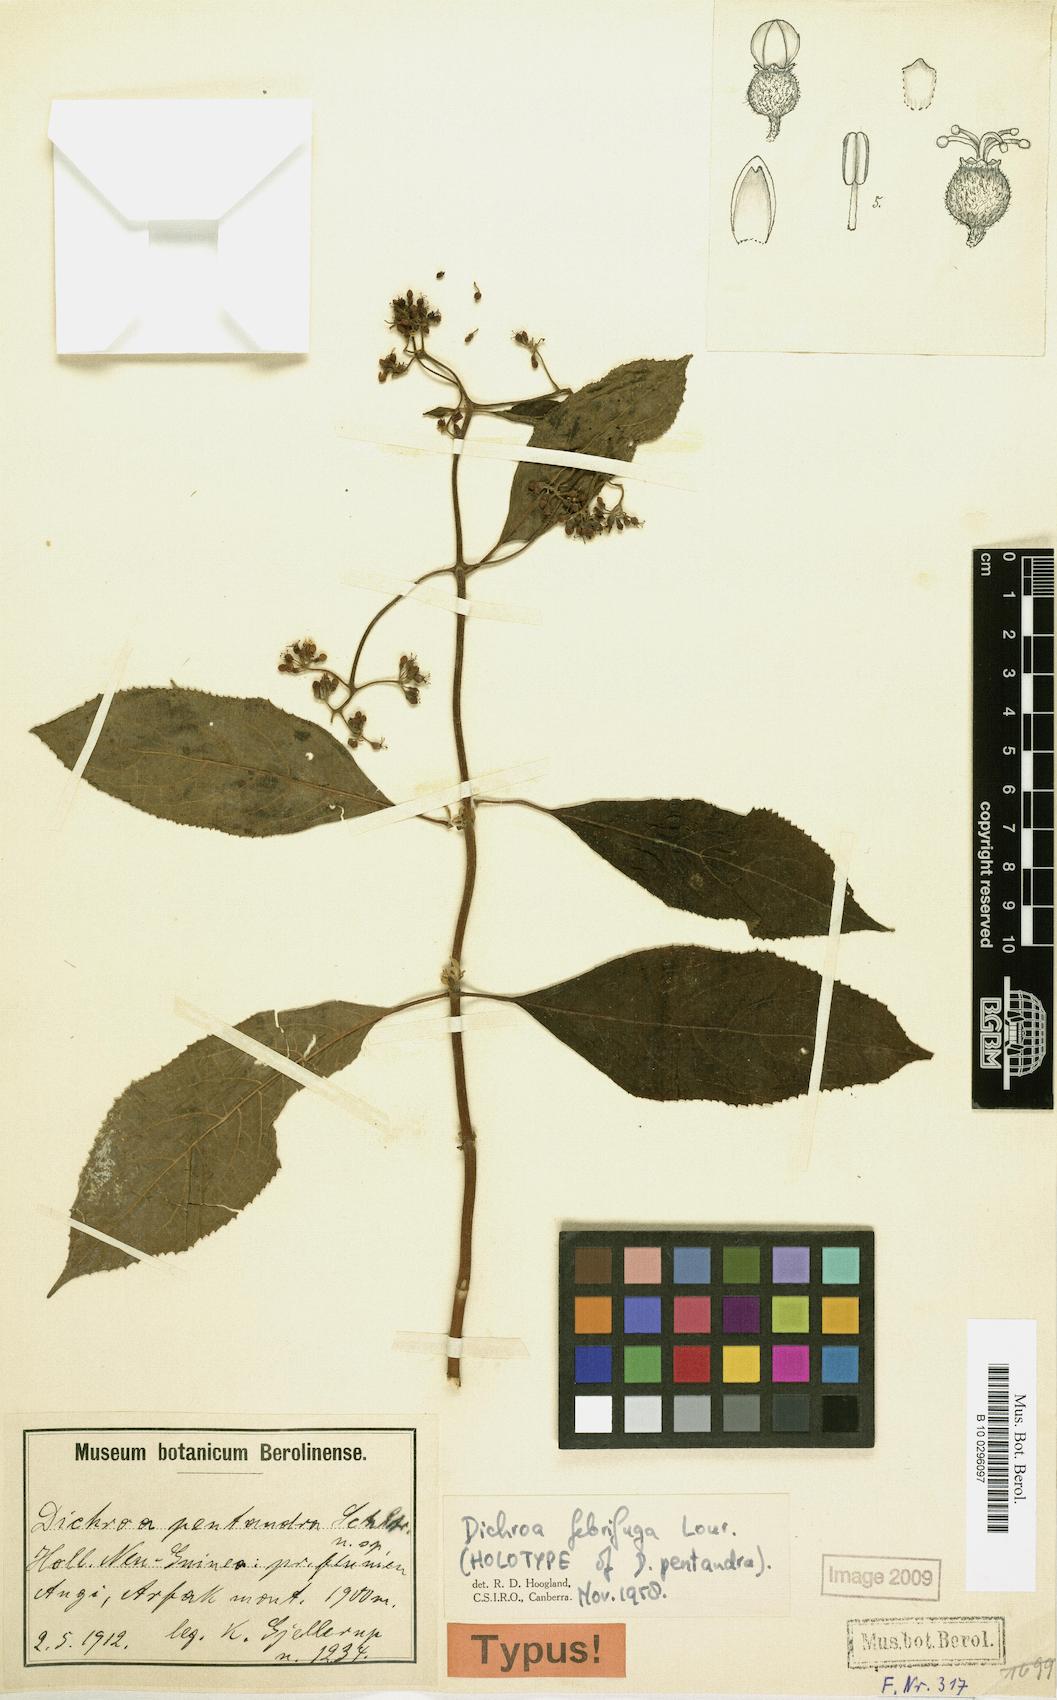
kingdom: Plantae
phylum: Tracheophyta
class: Magnoliopsida
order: Cornales
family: Hydrangeaceae
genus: Hydrangea
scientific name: Hydrangea febrifuga
